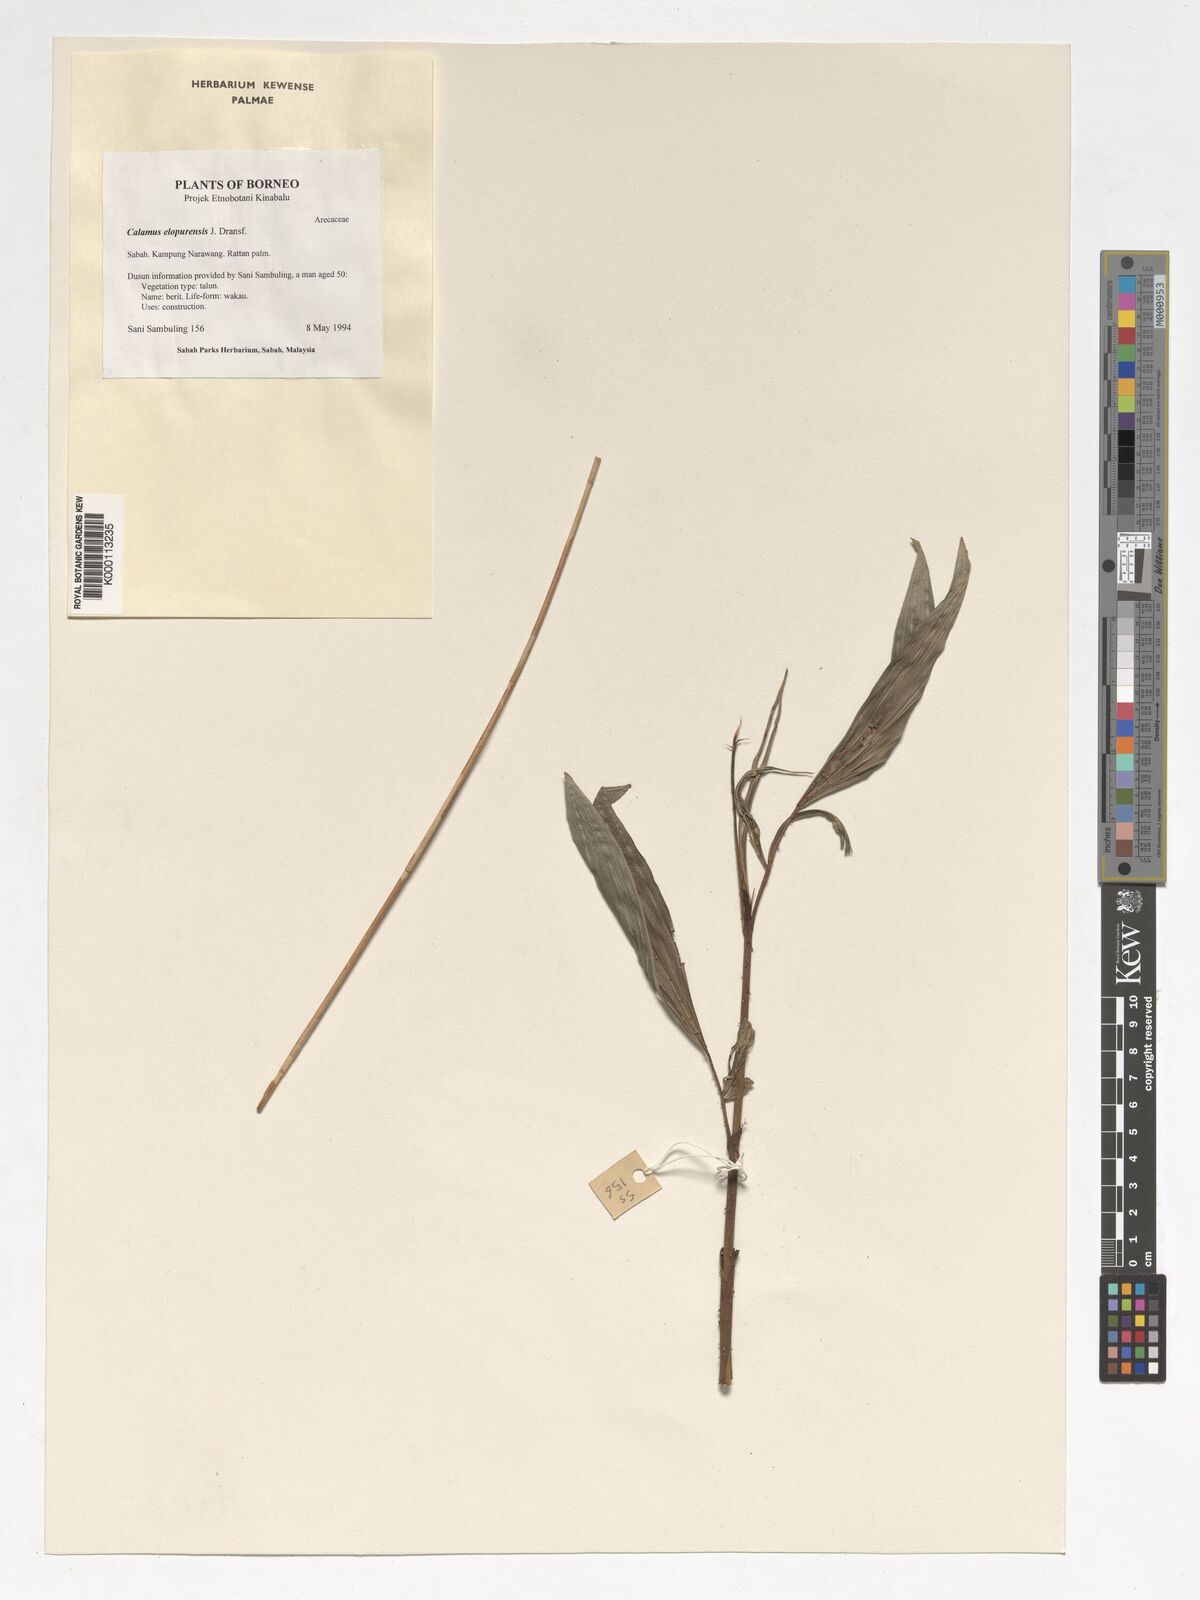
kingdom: Plantae
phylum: Tracheophyta
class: Liliopsida
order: Arecales
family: Arecaceae
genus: Calamus
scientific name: Calamus javensis
